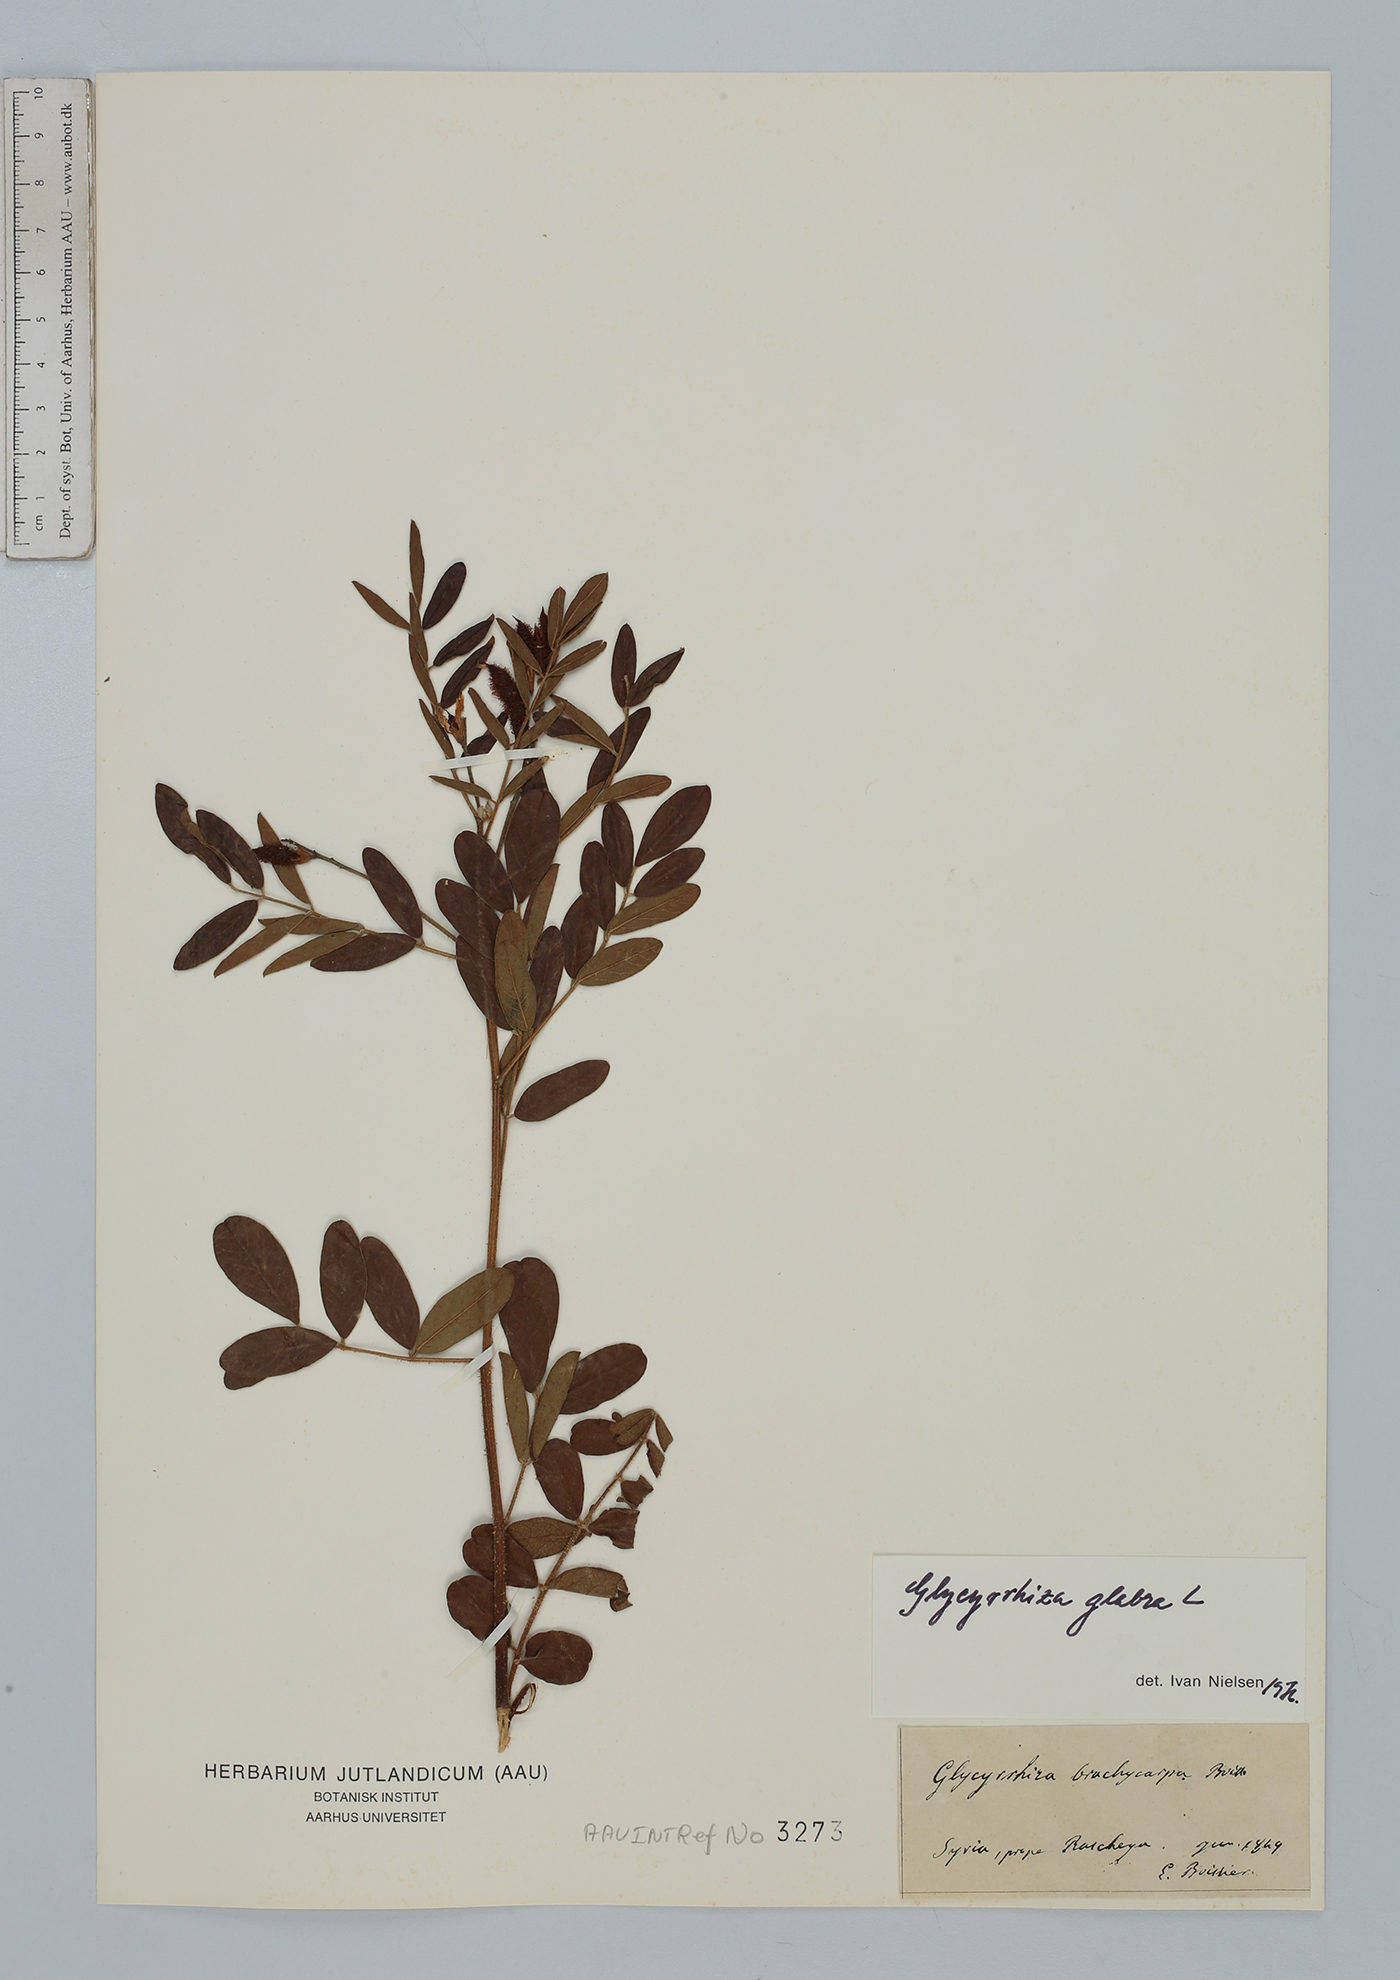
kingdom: Plantae
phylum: Tracheophyta
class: Magnoliopsida
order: Fabales
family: Fabaceae
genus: Glycyrrhiza
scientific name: Glycyrrhiza glabra
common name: Liquorice
